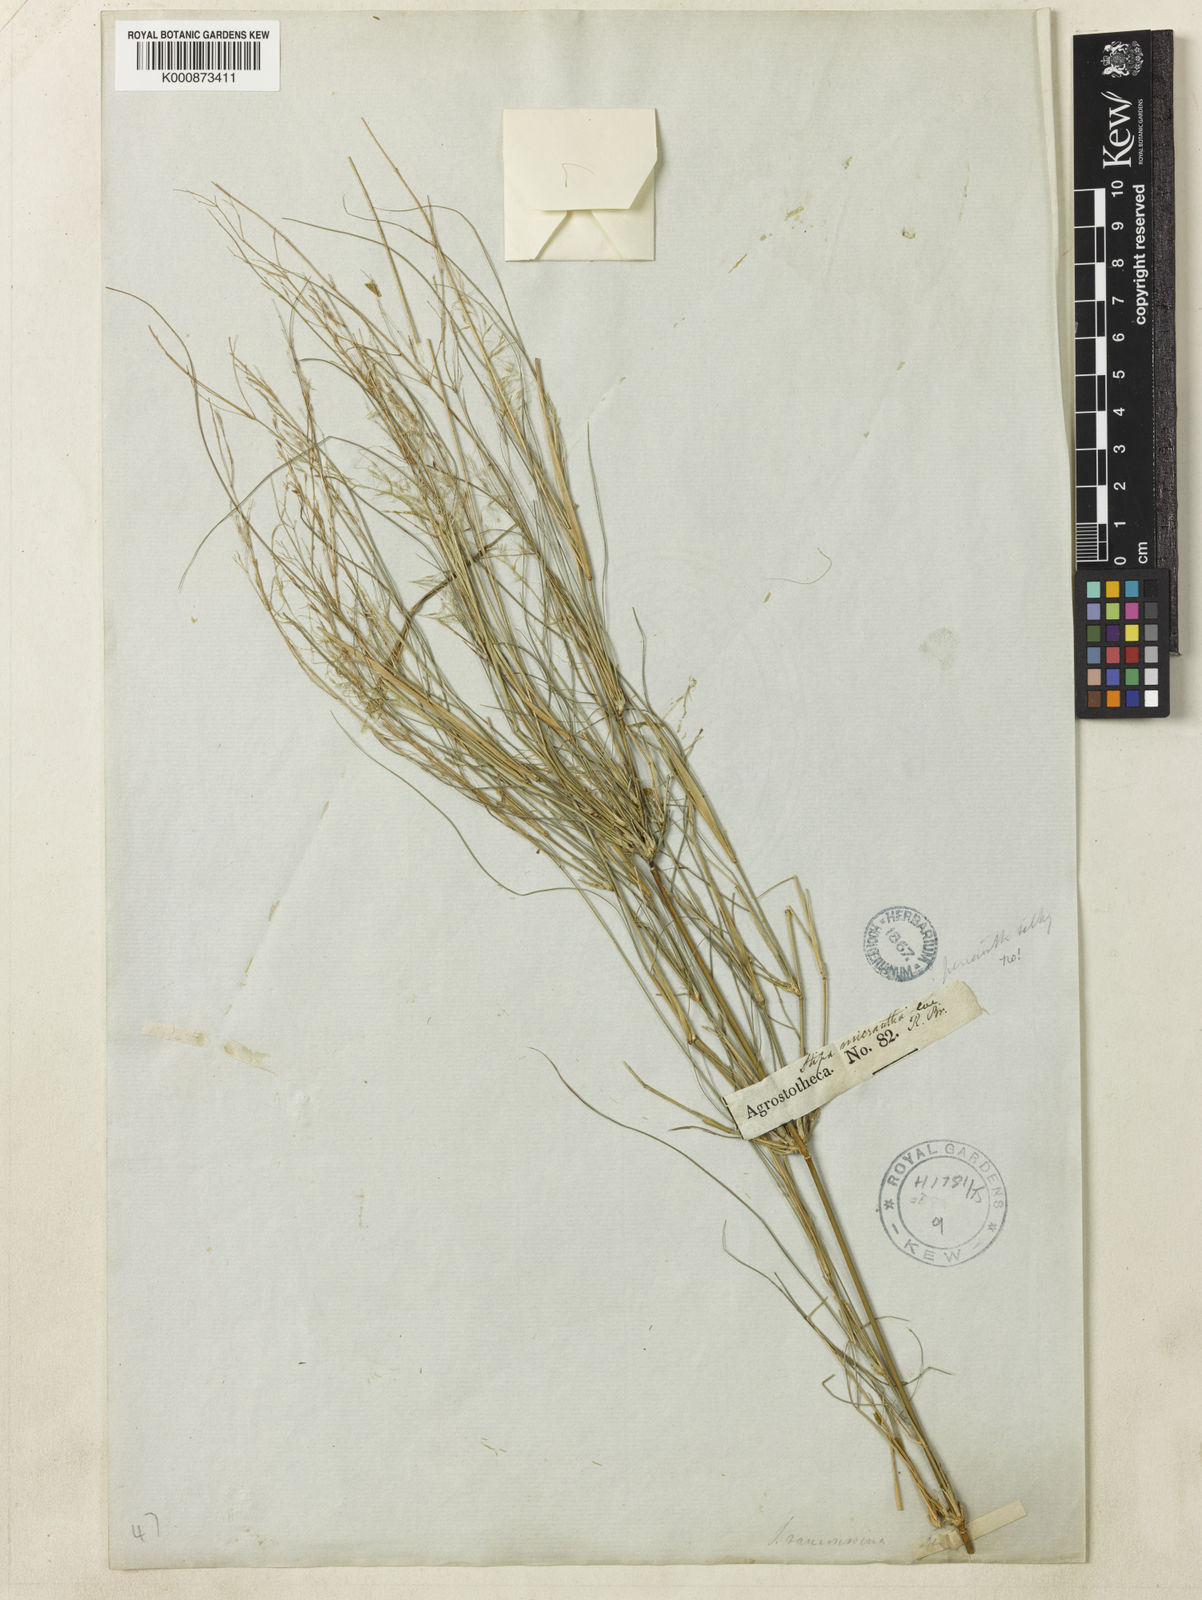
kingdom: Plantae
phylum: Tracheophyta
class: Liliopsida
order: Poales
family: Poaceae
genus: Austrostipa
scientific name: Austrostipa ramosissima
